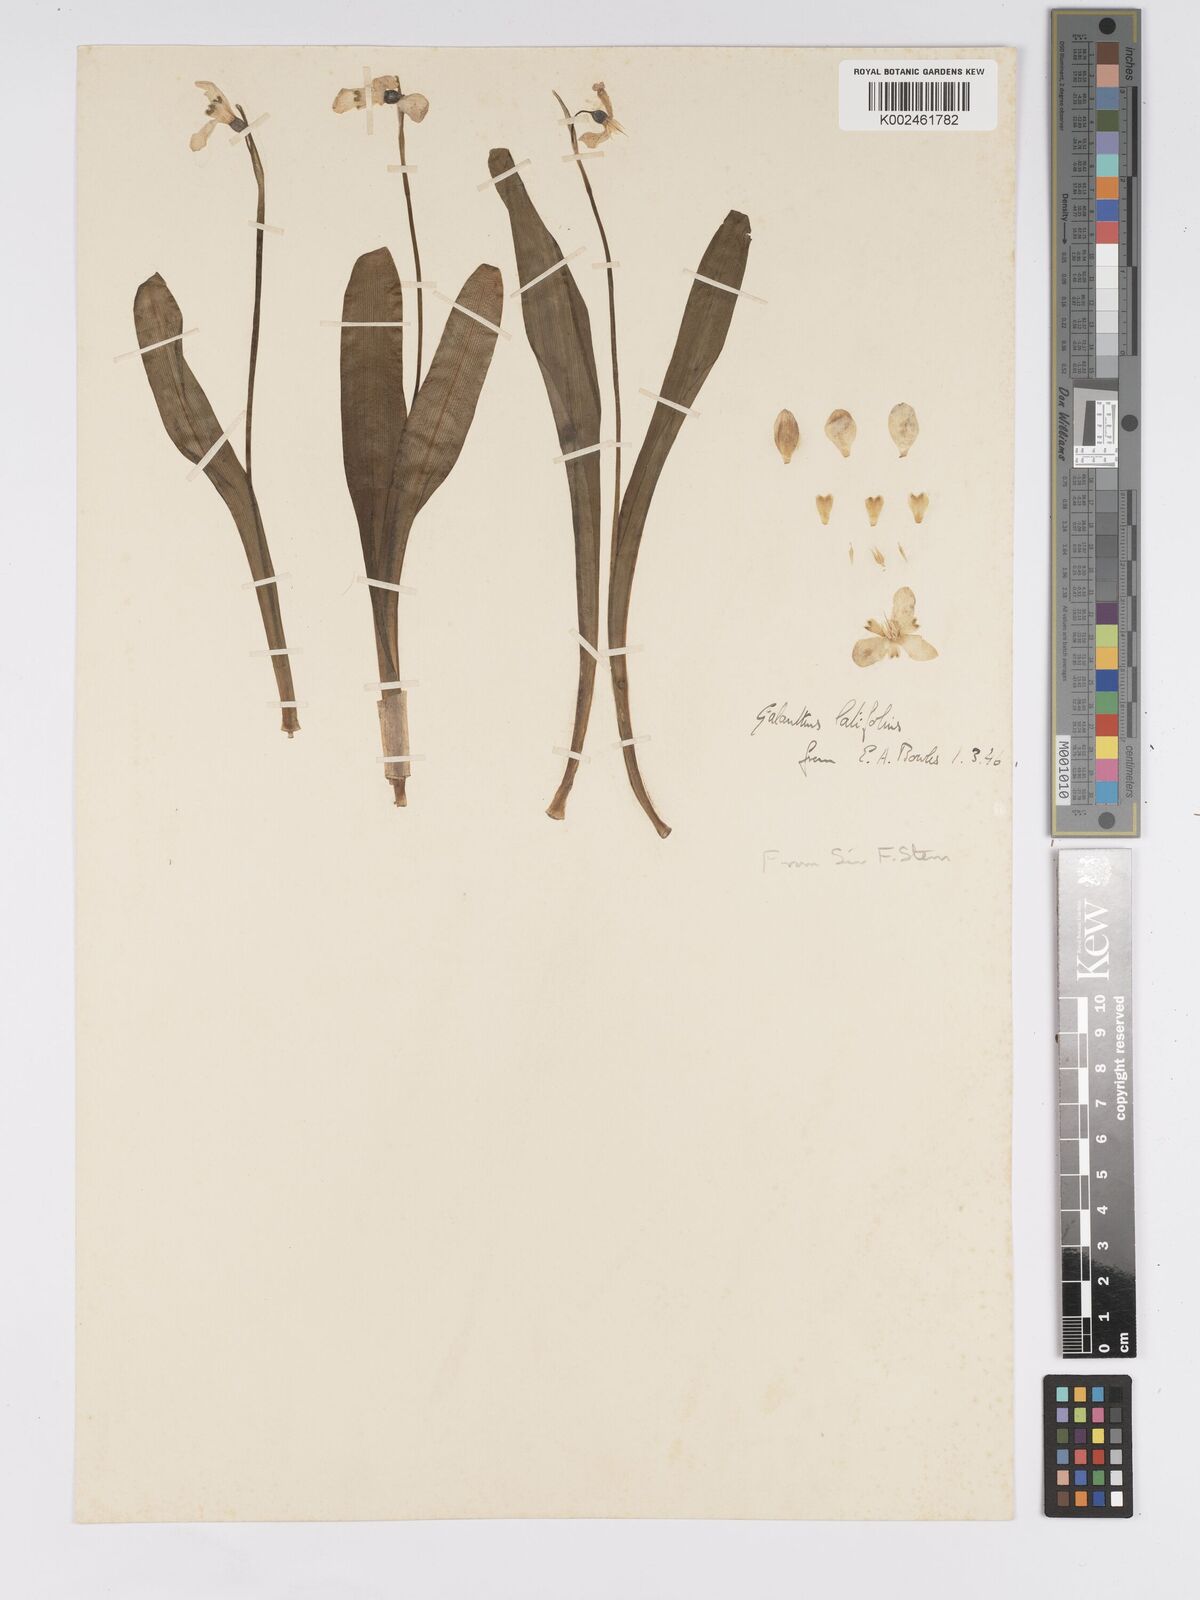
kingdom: Plantae
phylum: Tracheophyta
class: Liliopsida
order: Asparagales
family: Amaryllidaceae
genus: Galanthus
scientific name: Galanthus
